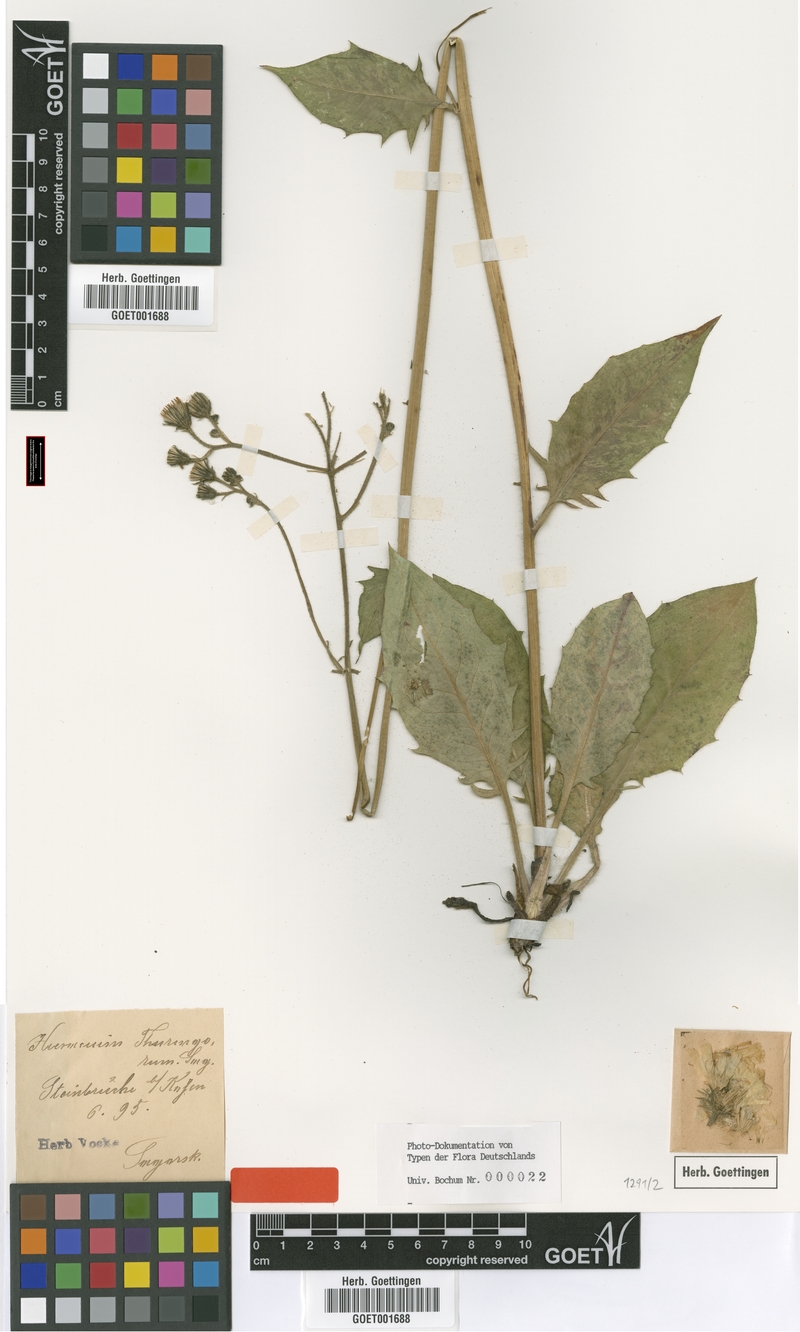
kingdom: Plantae
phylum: Tracheophyta
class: Magnoliopsida
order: Asterales
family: Asteraceae
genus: Hieracium
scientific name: Hieracium maculatum
